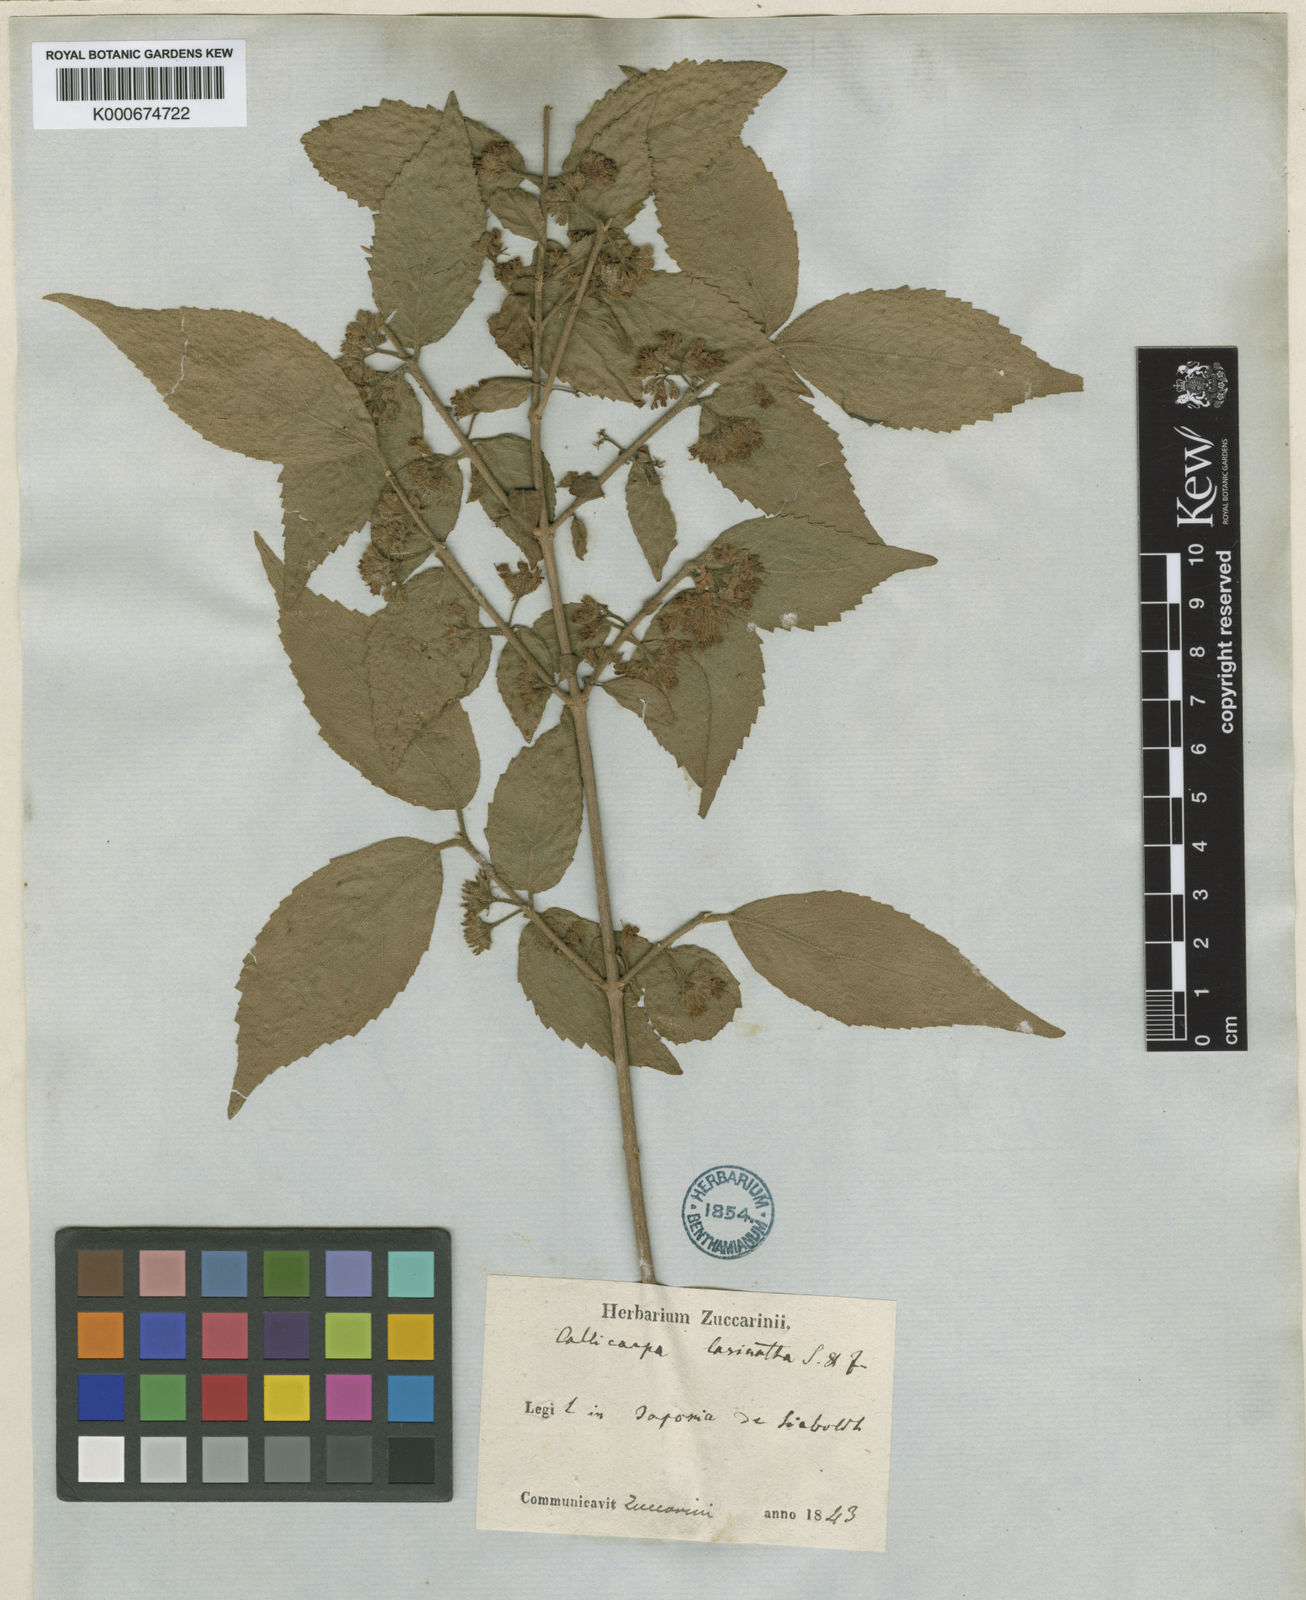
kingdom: Plantae
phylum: Tracheophyta
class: Magnoliopsida
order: Lamiales
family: Lamiaceae
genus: Callicarpa
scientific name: Callicarpa mollis
